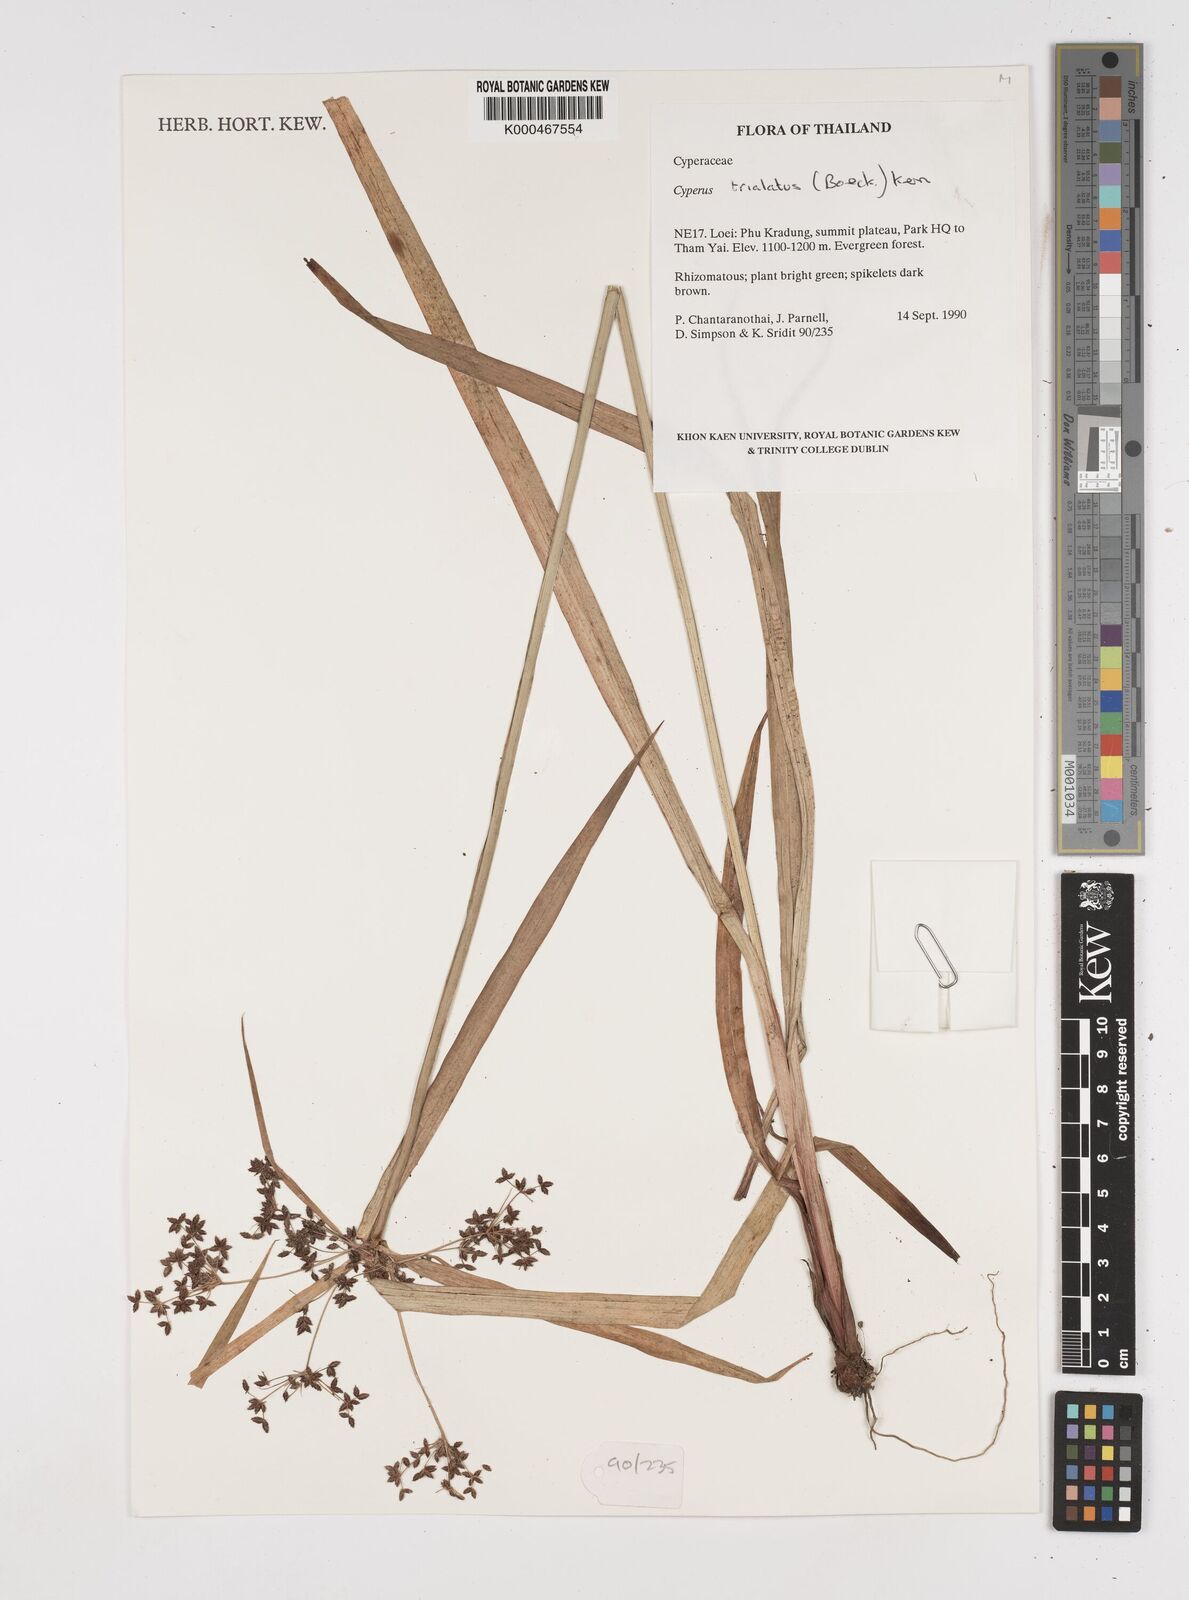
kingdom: Plantae
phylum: Tracheophyta
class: Liliopsida
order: Poales
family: Cyperaceae
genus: Cyperus
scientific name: Cyperus trialatus
